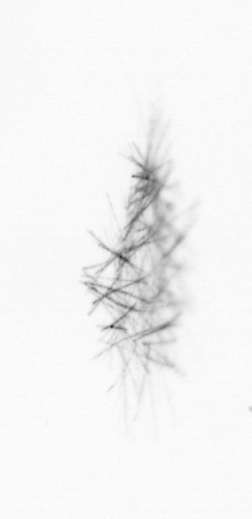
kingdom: Chromista
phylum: Ochrophyta
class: Bacillariophyceae
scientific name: Bacillariophyceae
